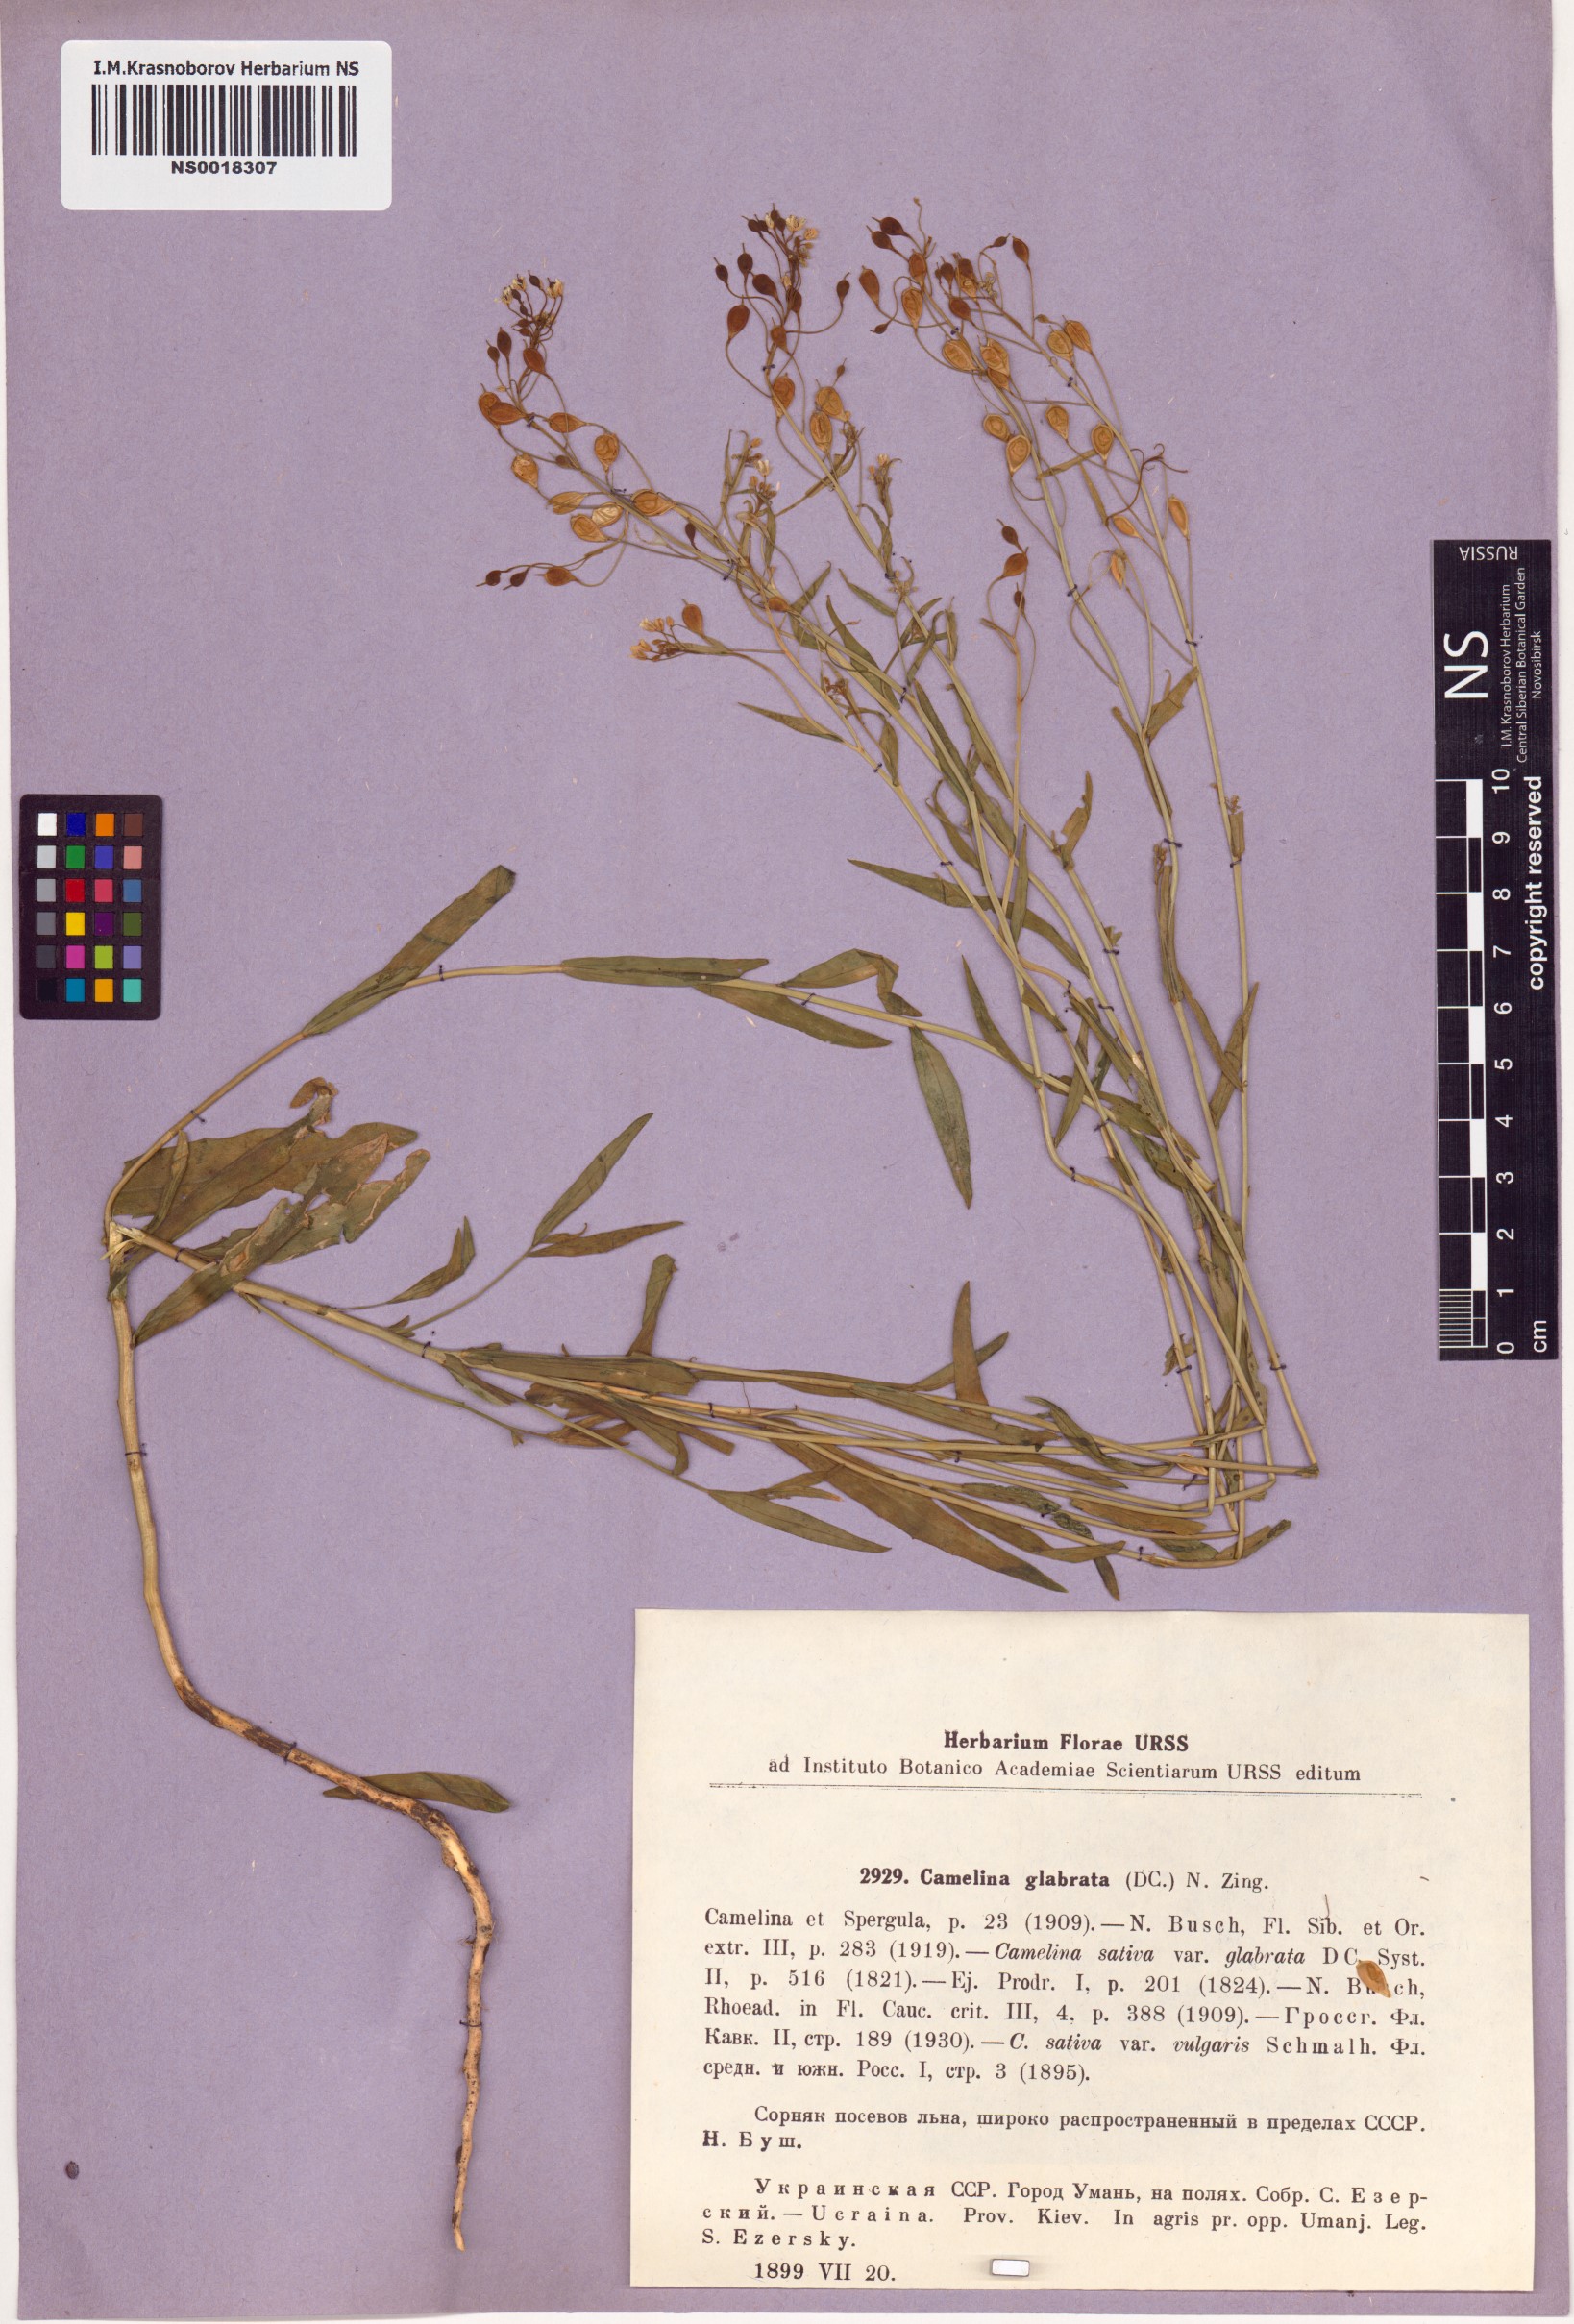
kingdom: Plantae
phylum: Tracheophyta
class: Magnoliopsida
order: Brassicales
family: Brassicaceae
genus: Camelina
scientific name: Camelina sativa
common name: Gold-of-pleasure
